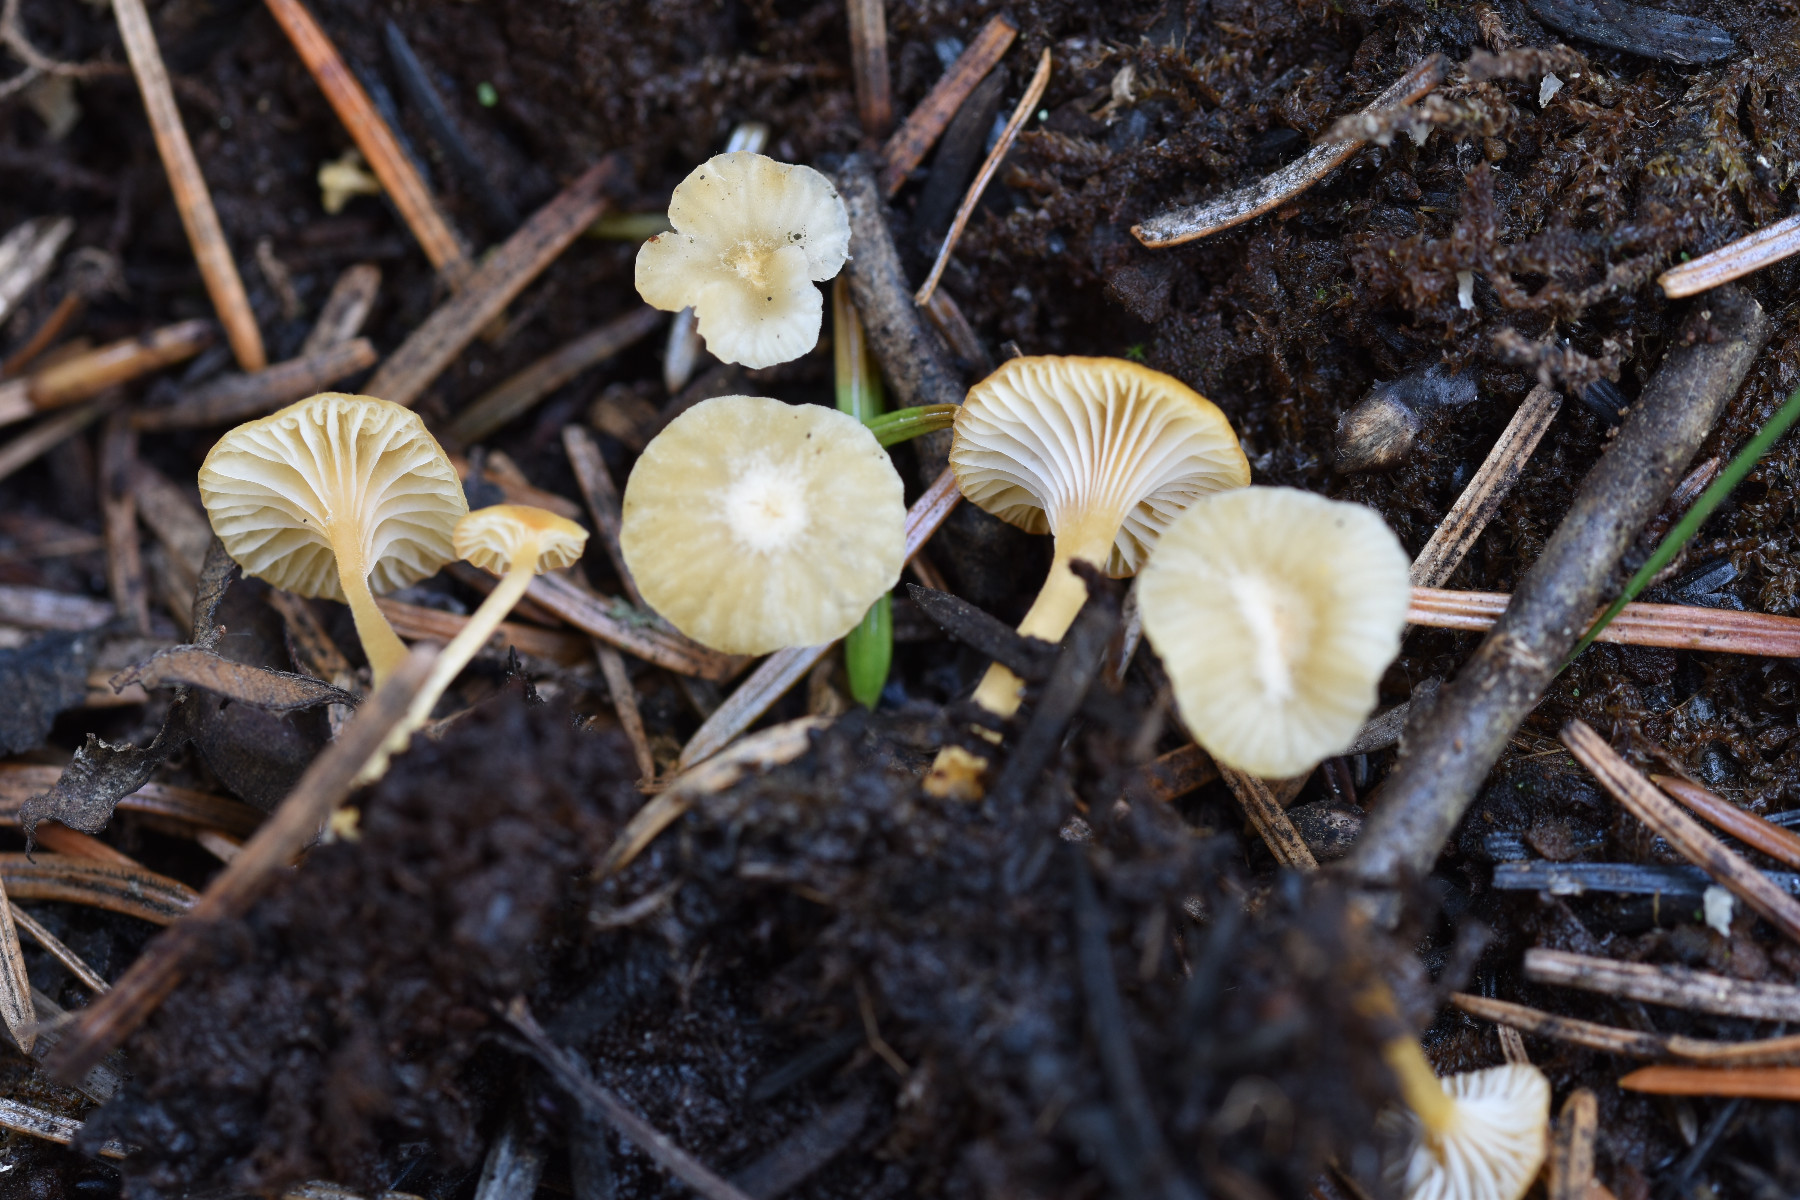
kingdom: Fungi
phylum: Basidiomycota
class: Agaricomycetes
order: Hymenochaetales
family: Rickenellaceae
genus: Rickenella
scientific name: Rickenella fibula
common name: orange mosnavlehat
